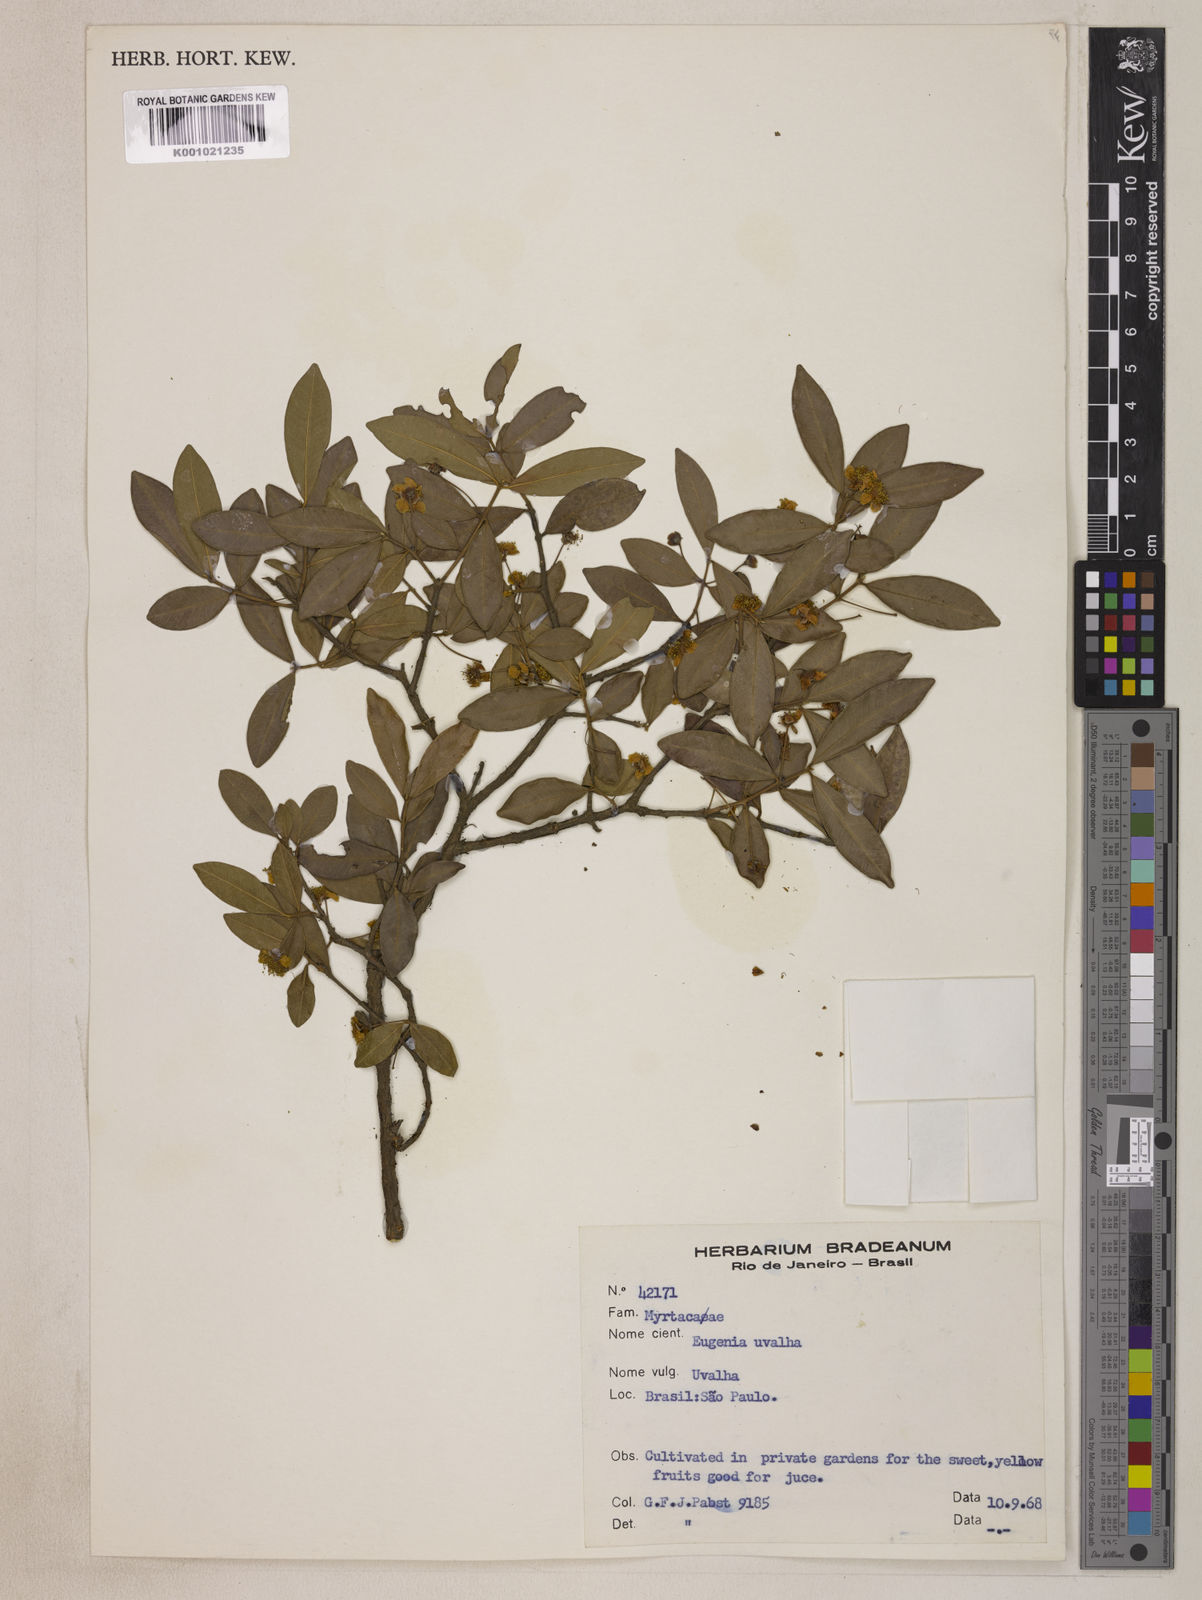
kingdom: Plantae
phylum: Tracheophyta
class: Magnoliopsida
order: Myrtales
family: Myrtaceae
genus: Eugenia
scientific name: Eugenia pyriformis
